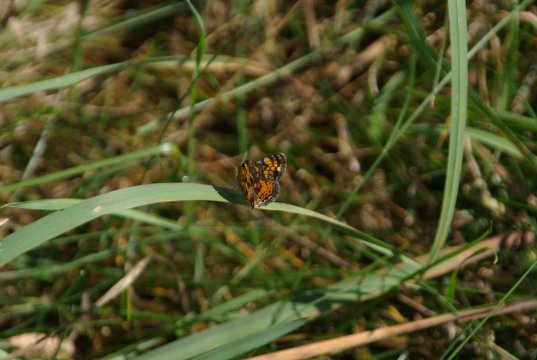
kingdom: Animalia
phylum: Arthropoda
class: Insecta
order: Lepidoptera
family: Nymphalidae
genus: Phyciodes
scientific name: Phyciodes tharos
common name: Pearl Crescent
